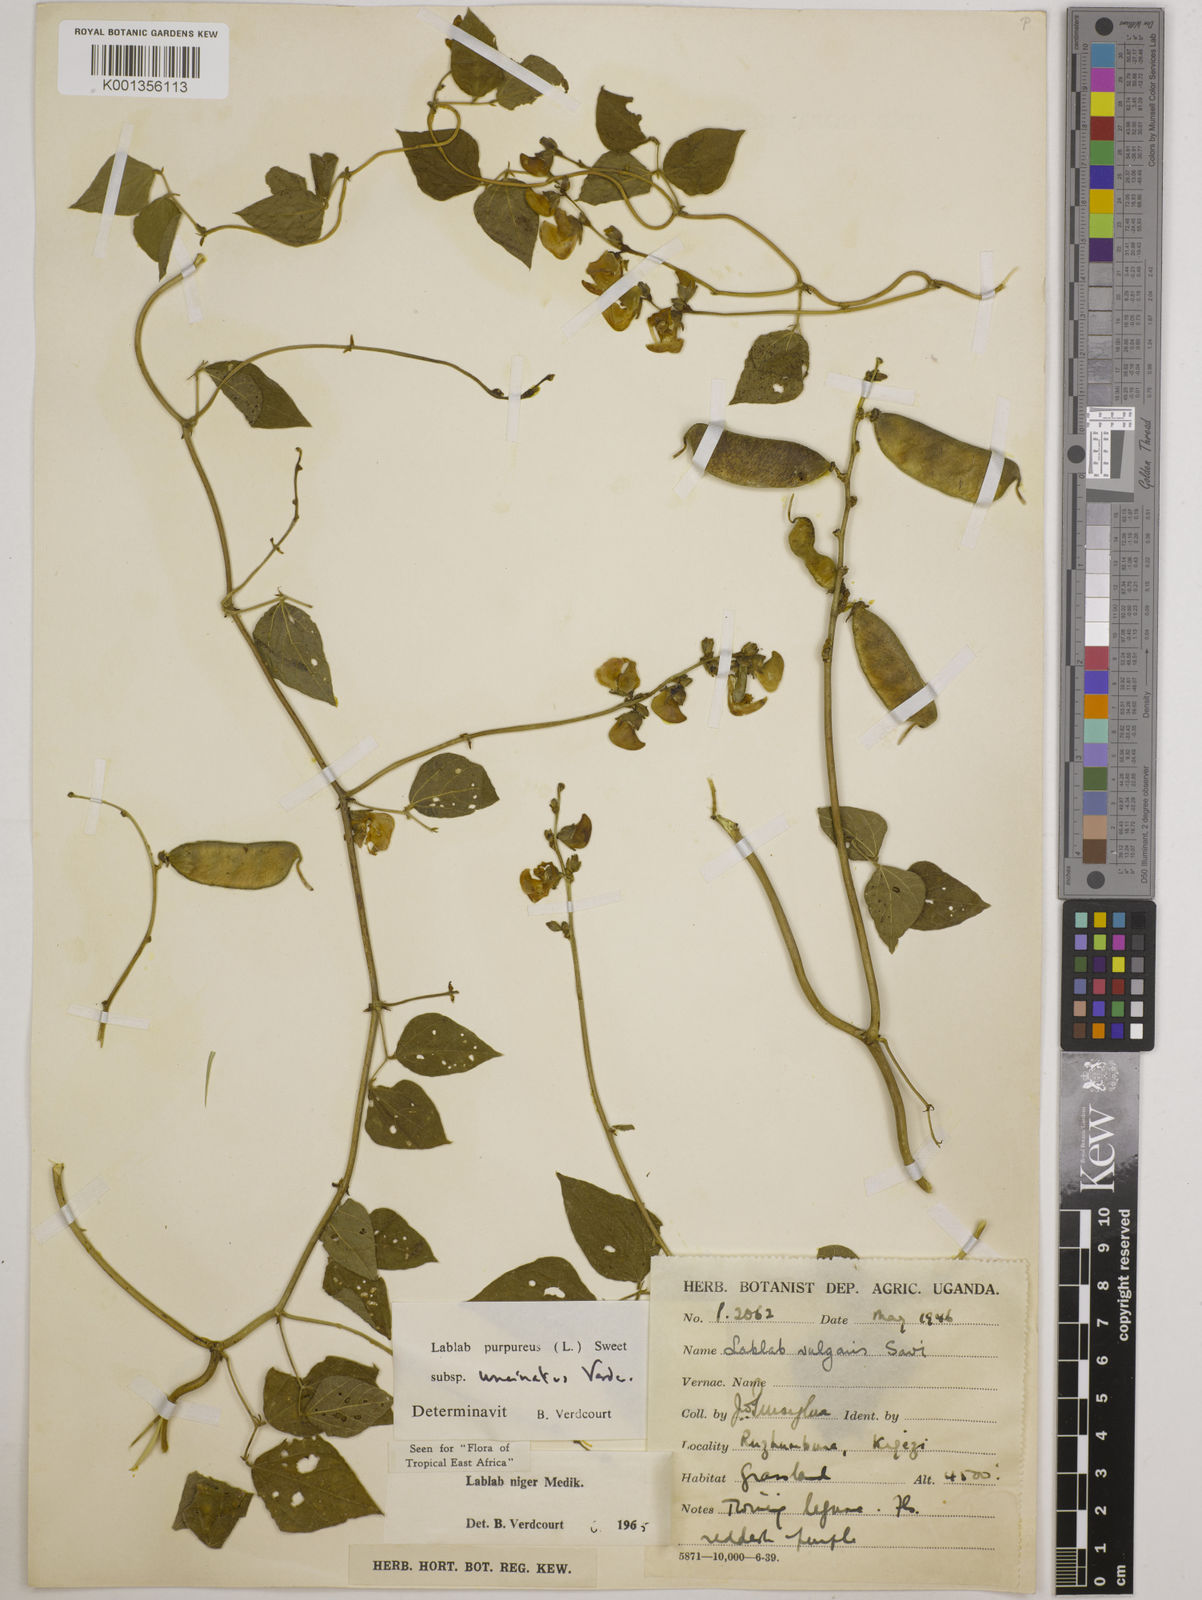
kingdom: Plantae
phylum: Tracheophyta
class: Magnoliopsida
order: Fabales
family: Fabaceae
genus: Lablab
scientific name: Lablab purpureus
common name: Lablab-bean
